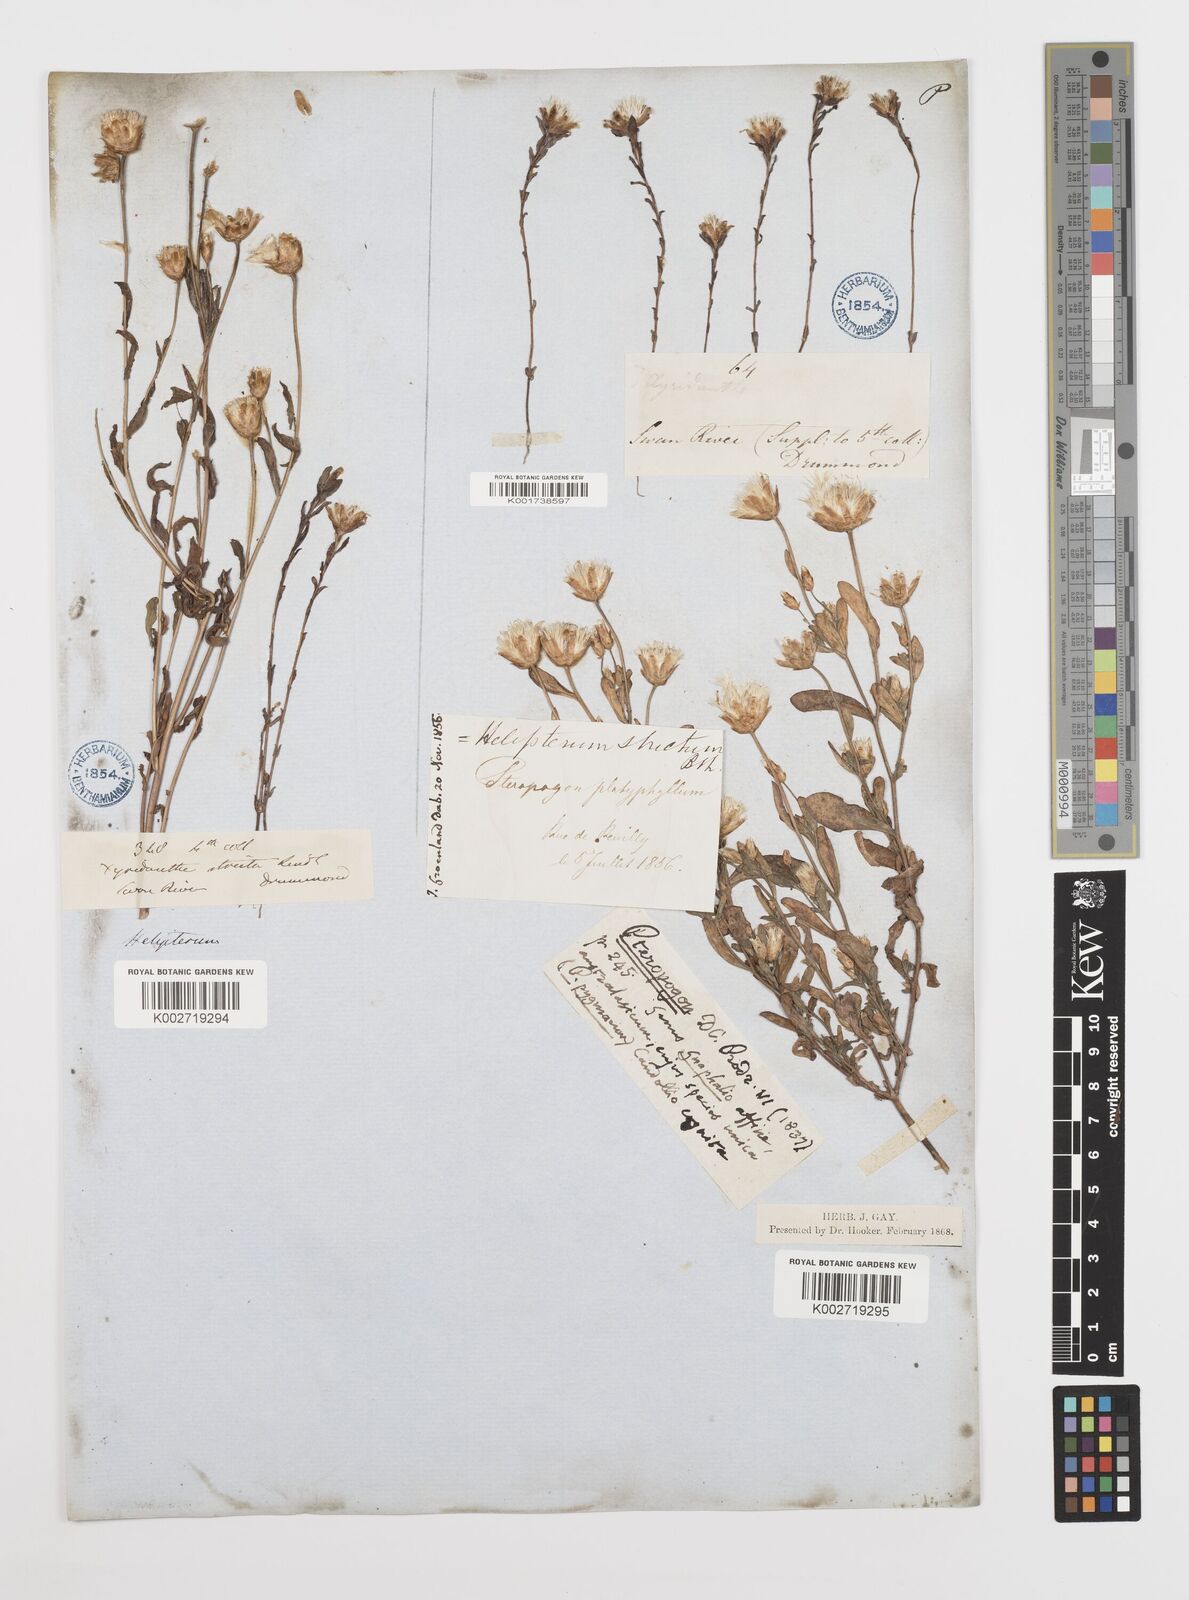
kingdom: Plantae
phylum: Tracheophyta
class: Magnoliopsida
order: Asterales
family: Asteraceae
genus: Rhodanthe
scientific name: Rhodanthe stricta
